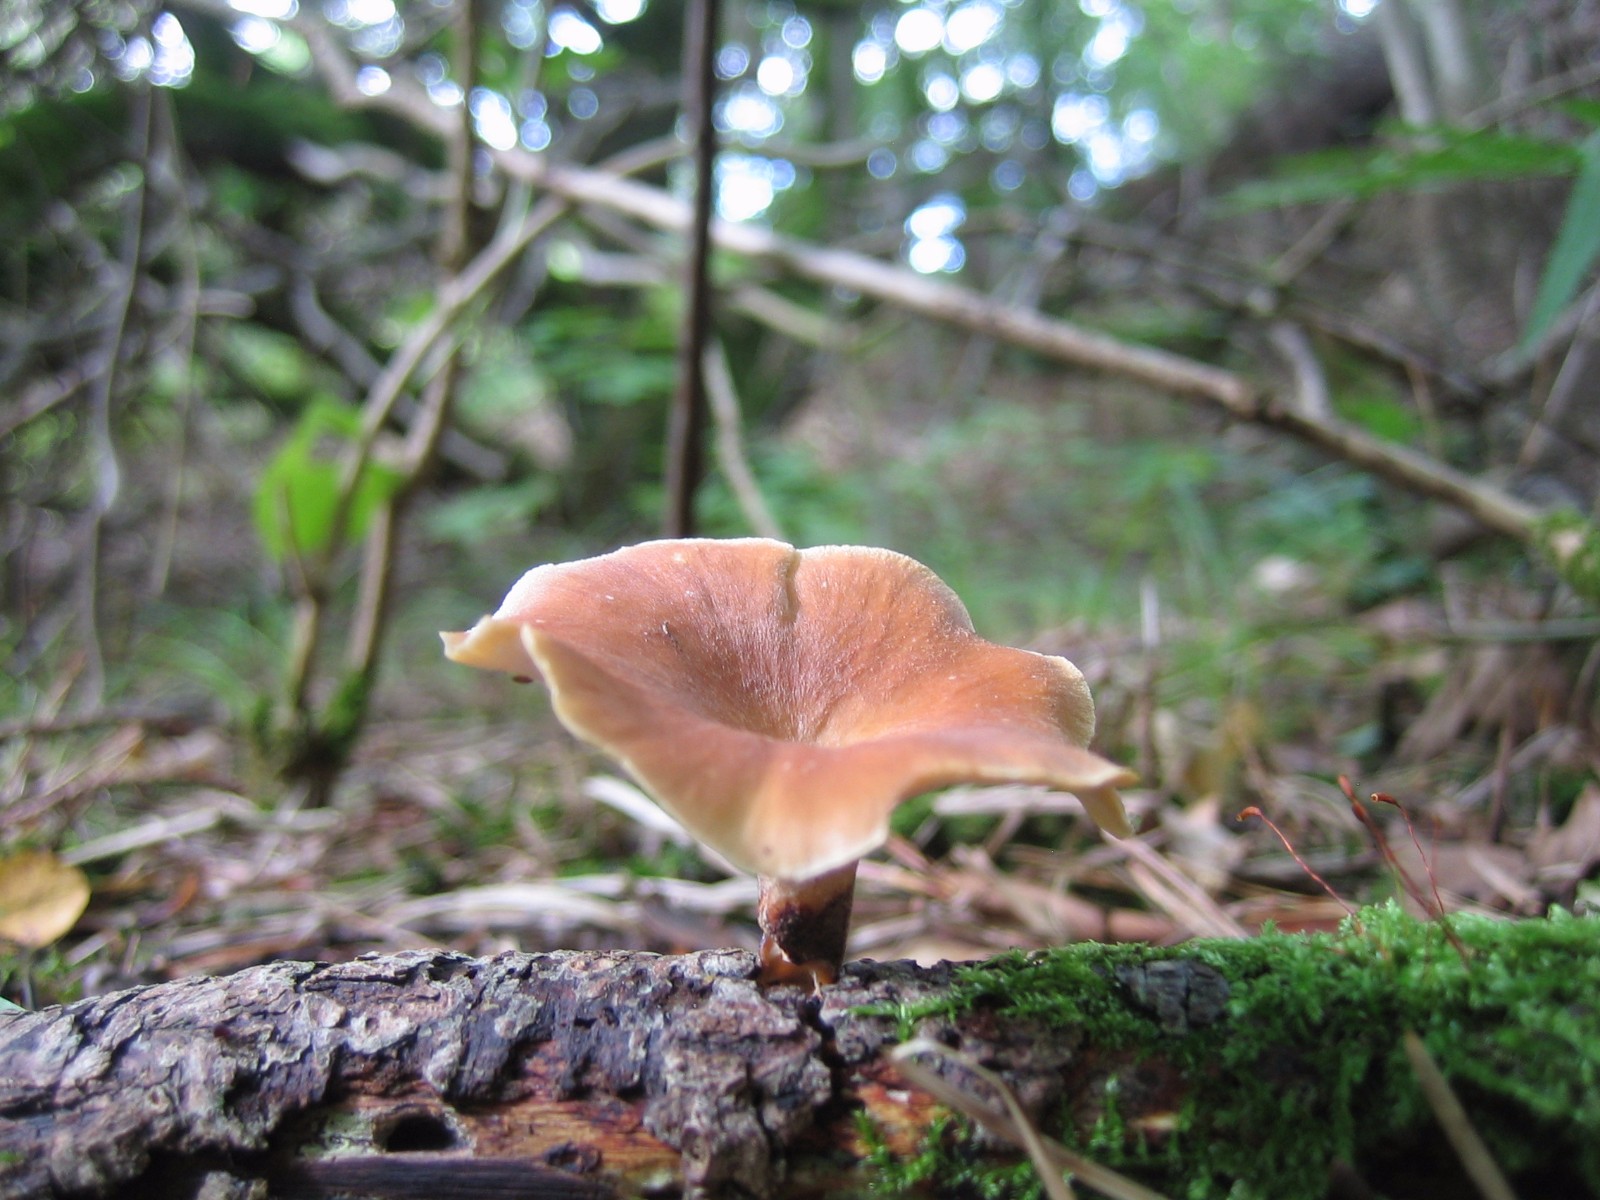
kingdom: Fungi
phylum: Basidiomycota
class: Agaricomycetes
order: Polyporales
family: Polyporaceae
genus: Cerioporus
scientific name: Cerioporus varius
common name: foranderlig stilkporesvamp
